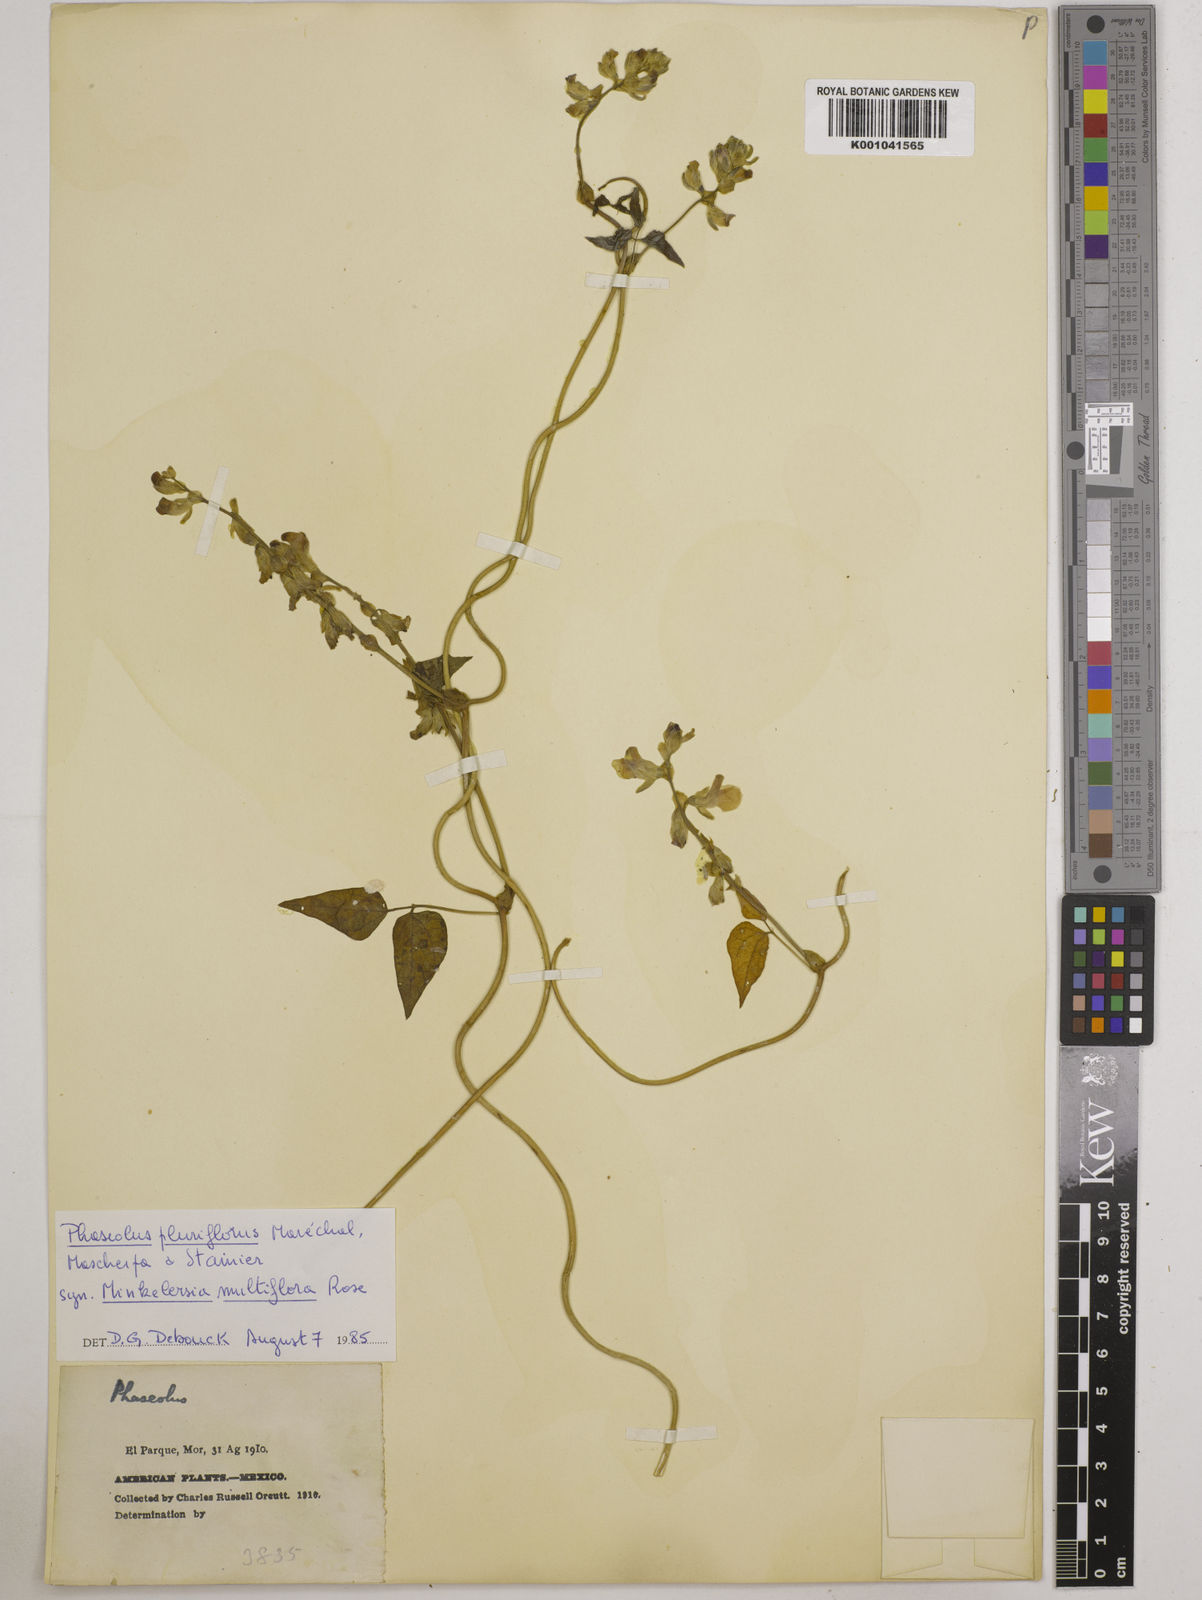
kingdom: Plantae
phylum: Tracheophyta
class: Magnoliopsida
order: Fabales
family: Fabaceae
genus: Phaseolus
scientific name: Phaseolus vulcanicus
